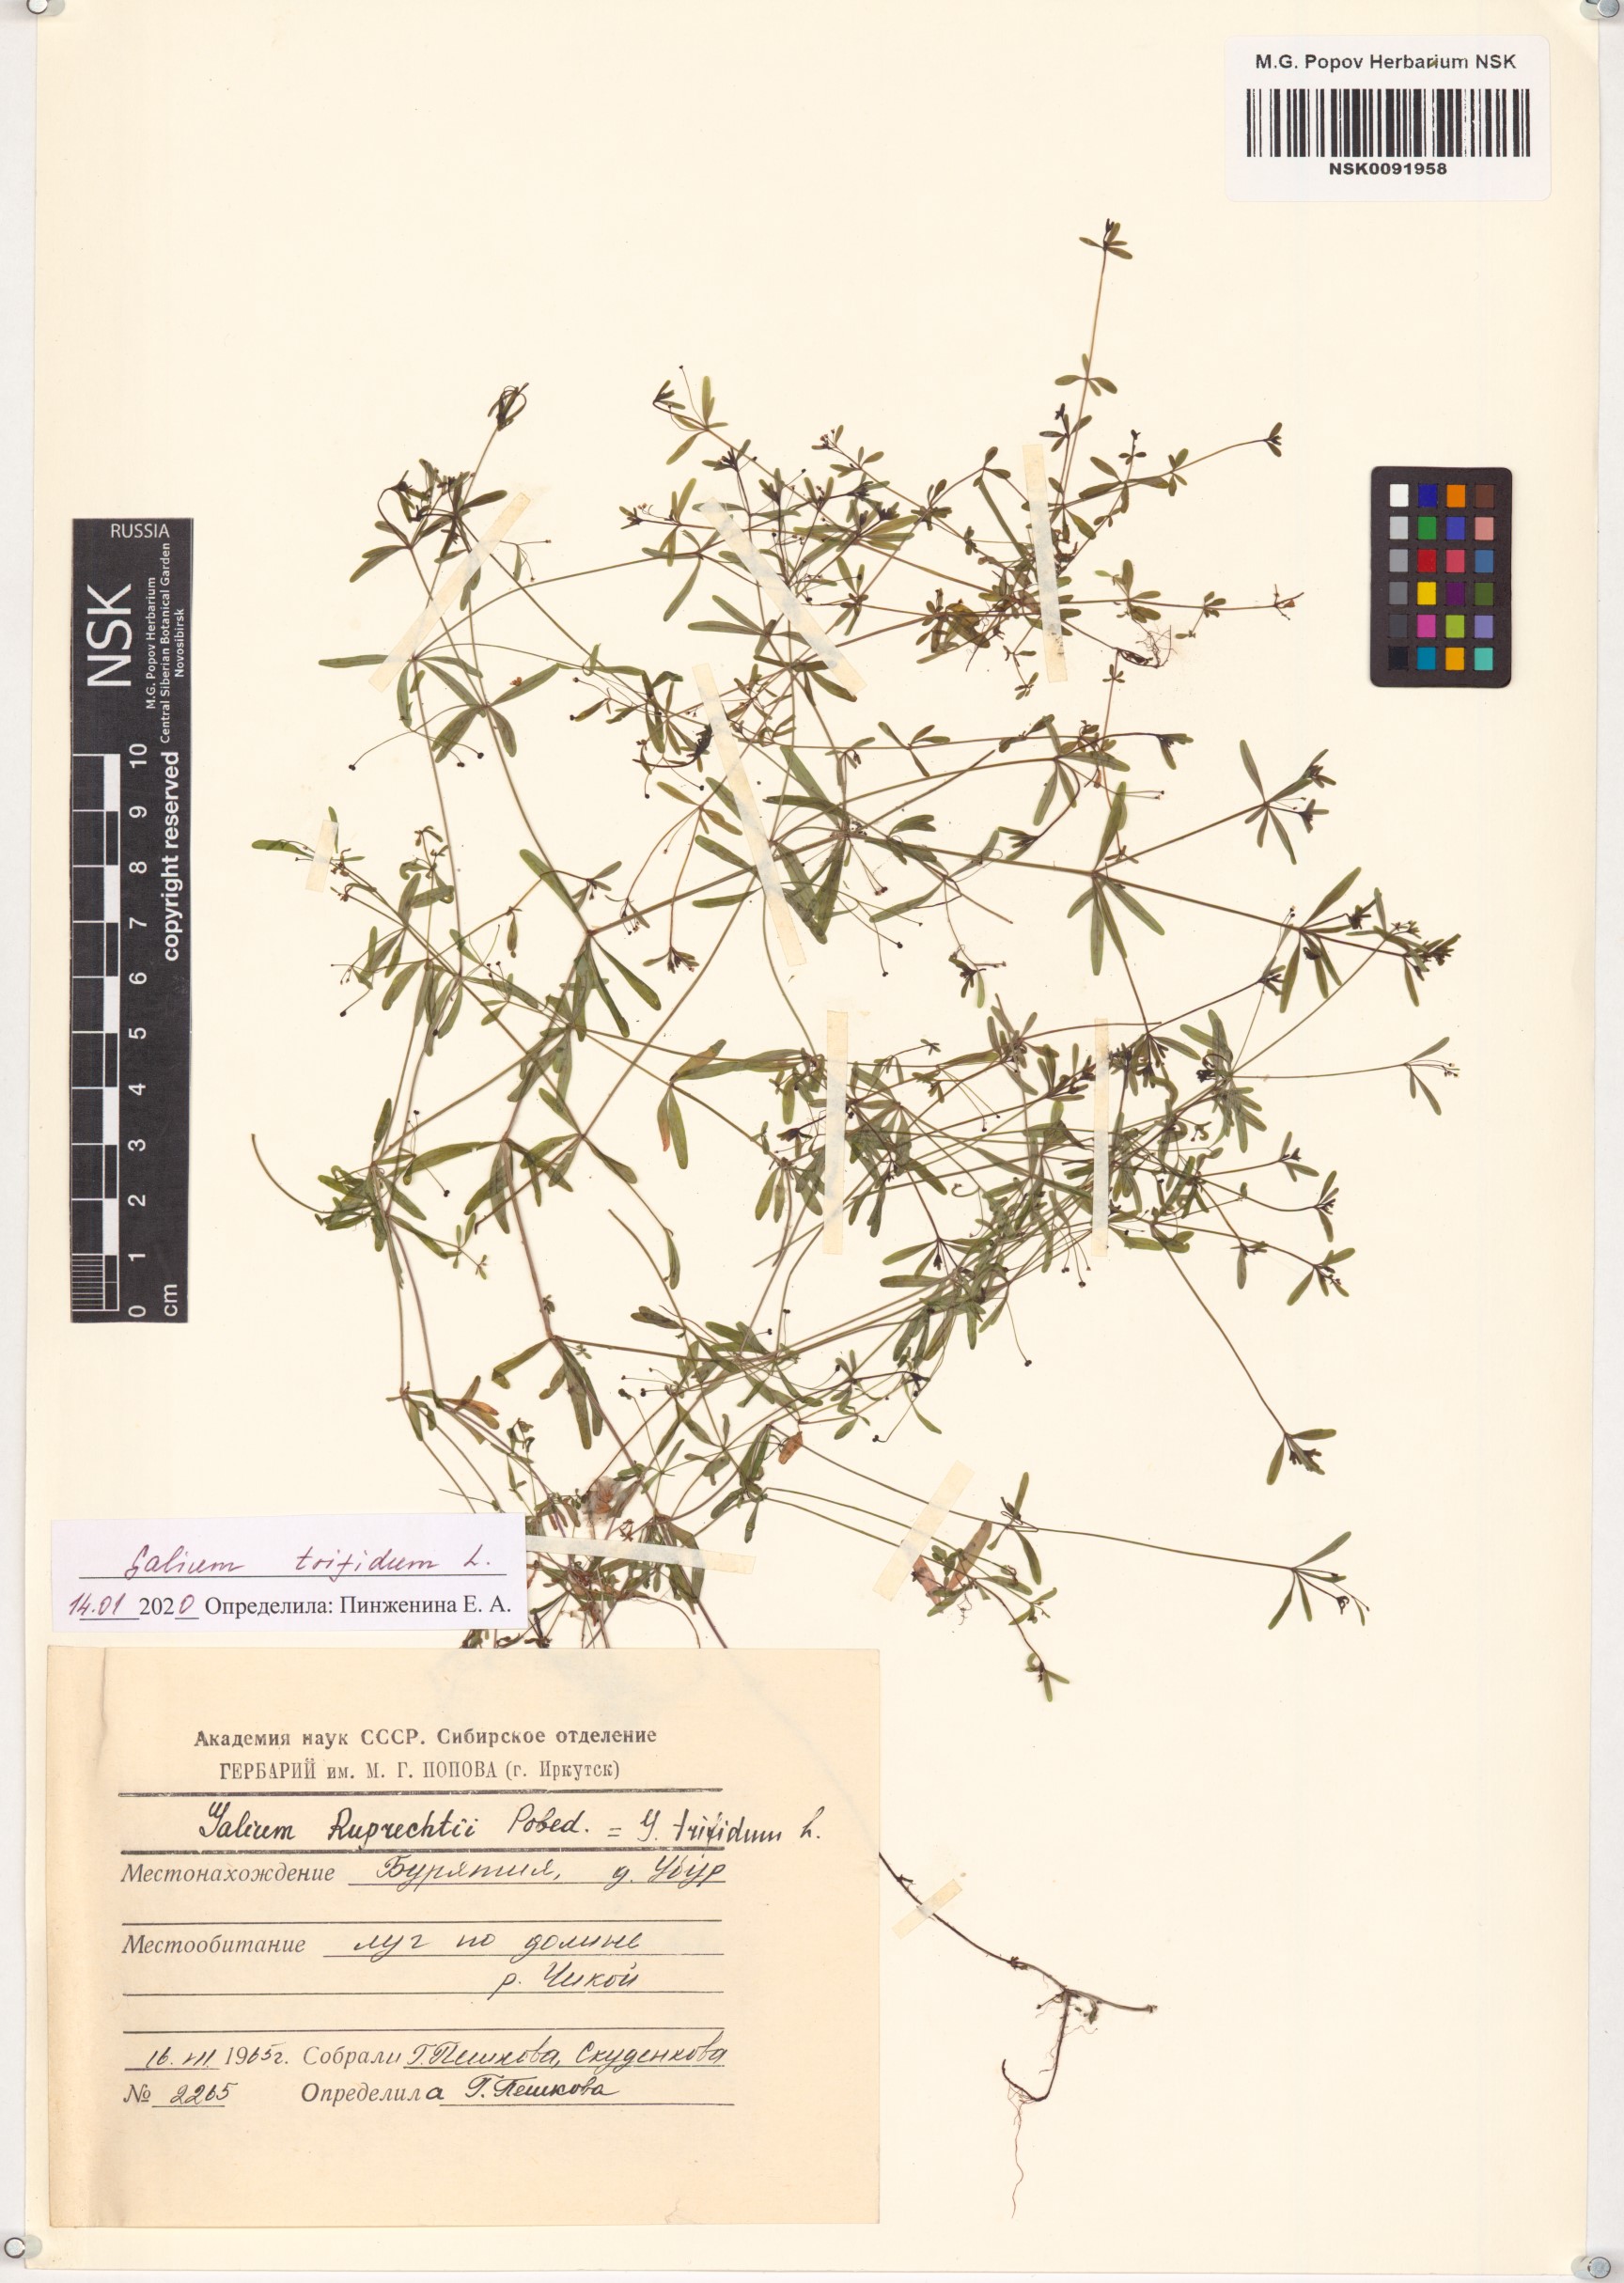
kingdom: Plantae
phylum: Tracheophyta
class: Magnoliopsida
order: Gentianales
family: Rubiaceae
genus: Galium
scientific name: Galium trifidum
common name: Small bedstraw
